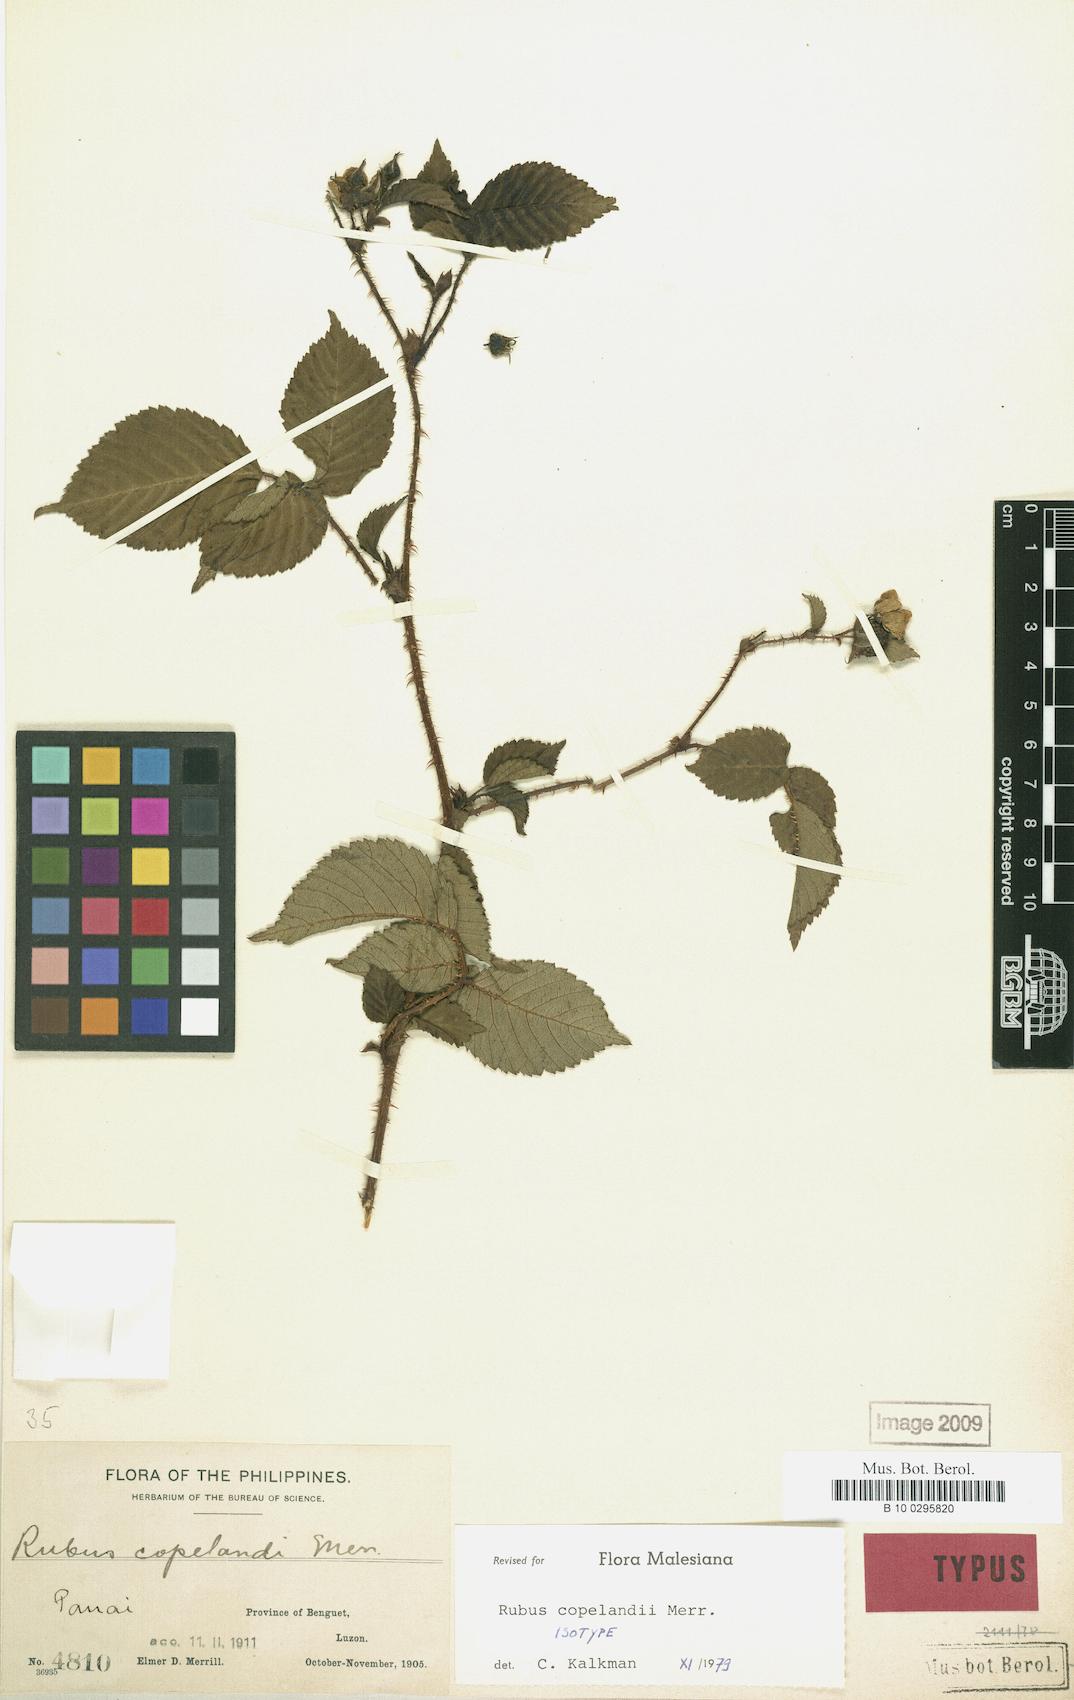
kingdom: Plantae
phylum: Tracheophyta
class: Magnoliopsida
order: Rosales
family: Rosaceae
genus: Rubus
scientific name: Rubus copelandii
